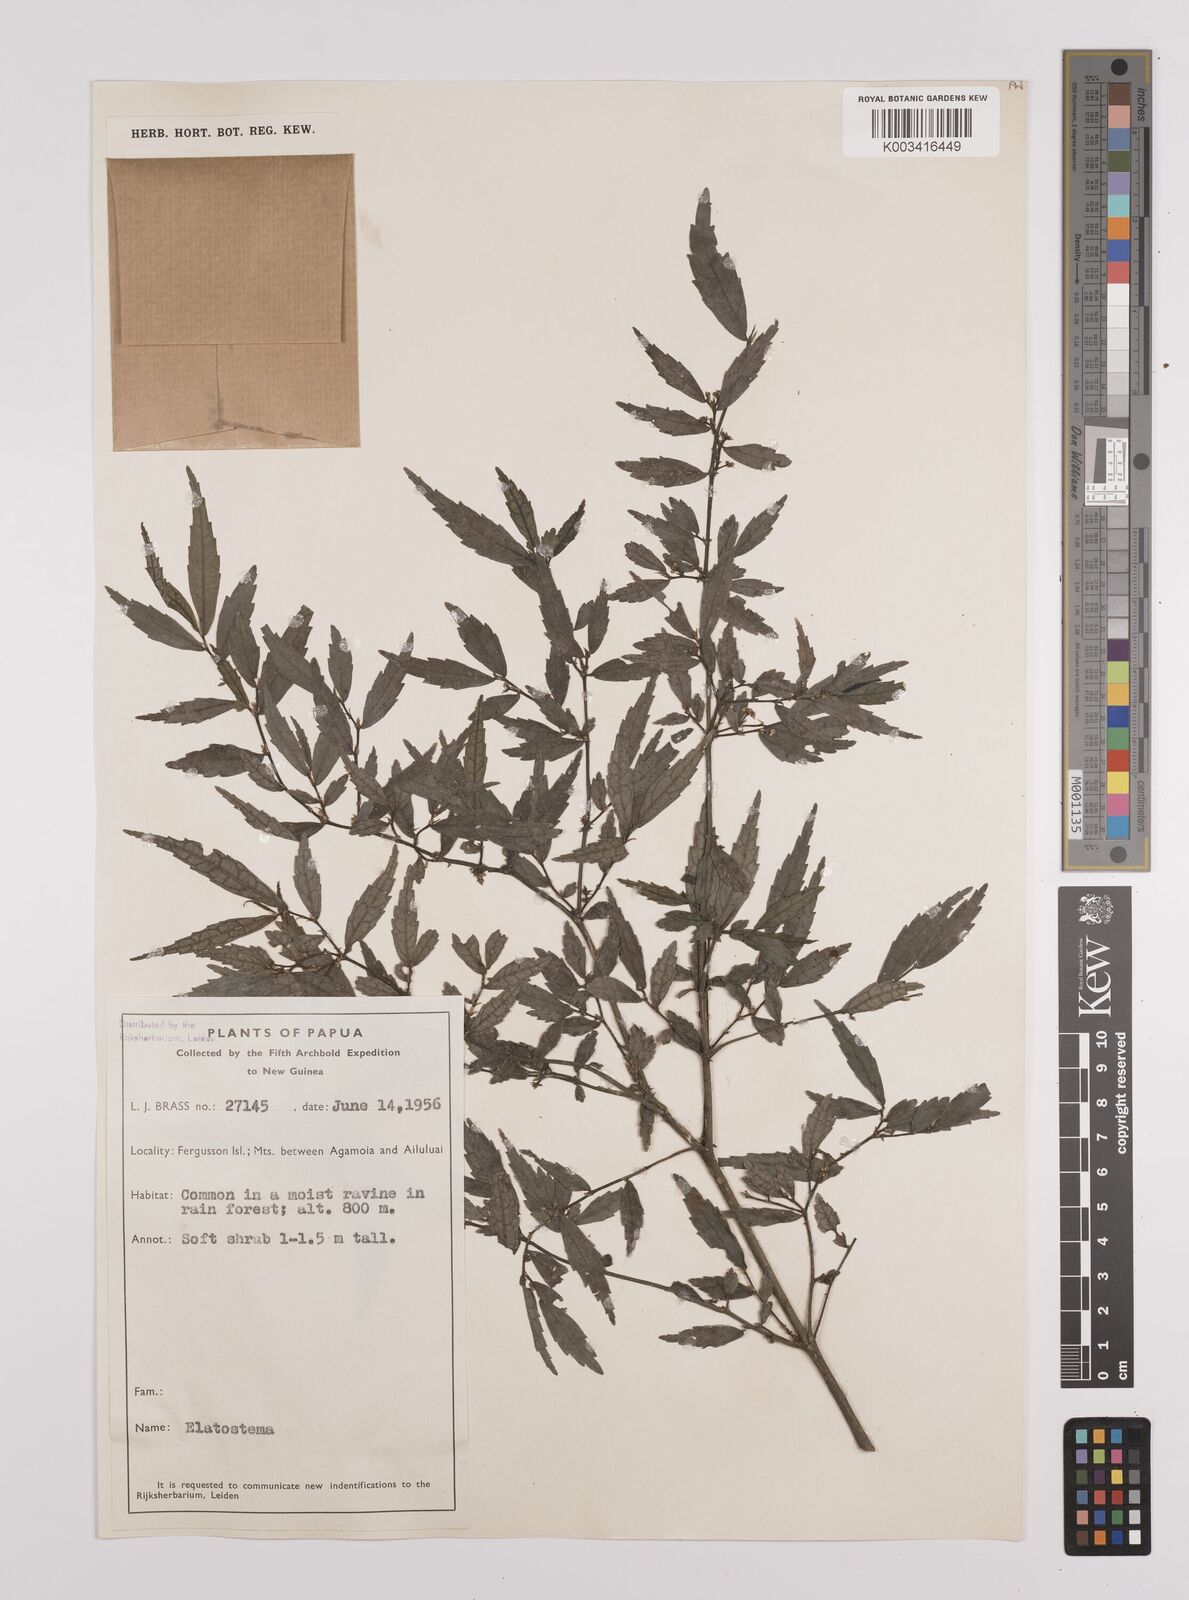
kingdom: Plantae
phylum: Tracheophyta
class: Magnoliopsida
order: Rosales
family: Urticaceae
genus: Elatostema
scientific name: Elatostema
